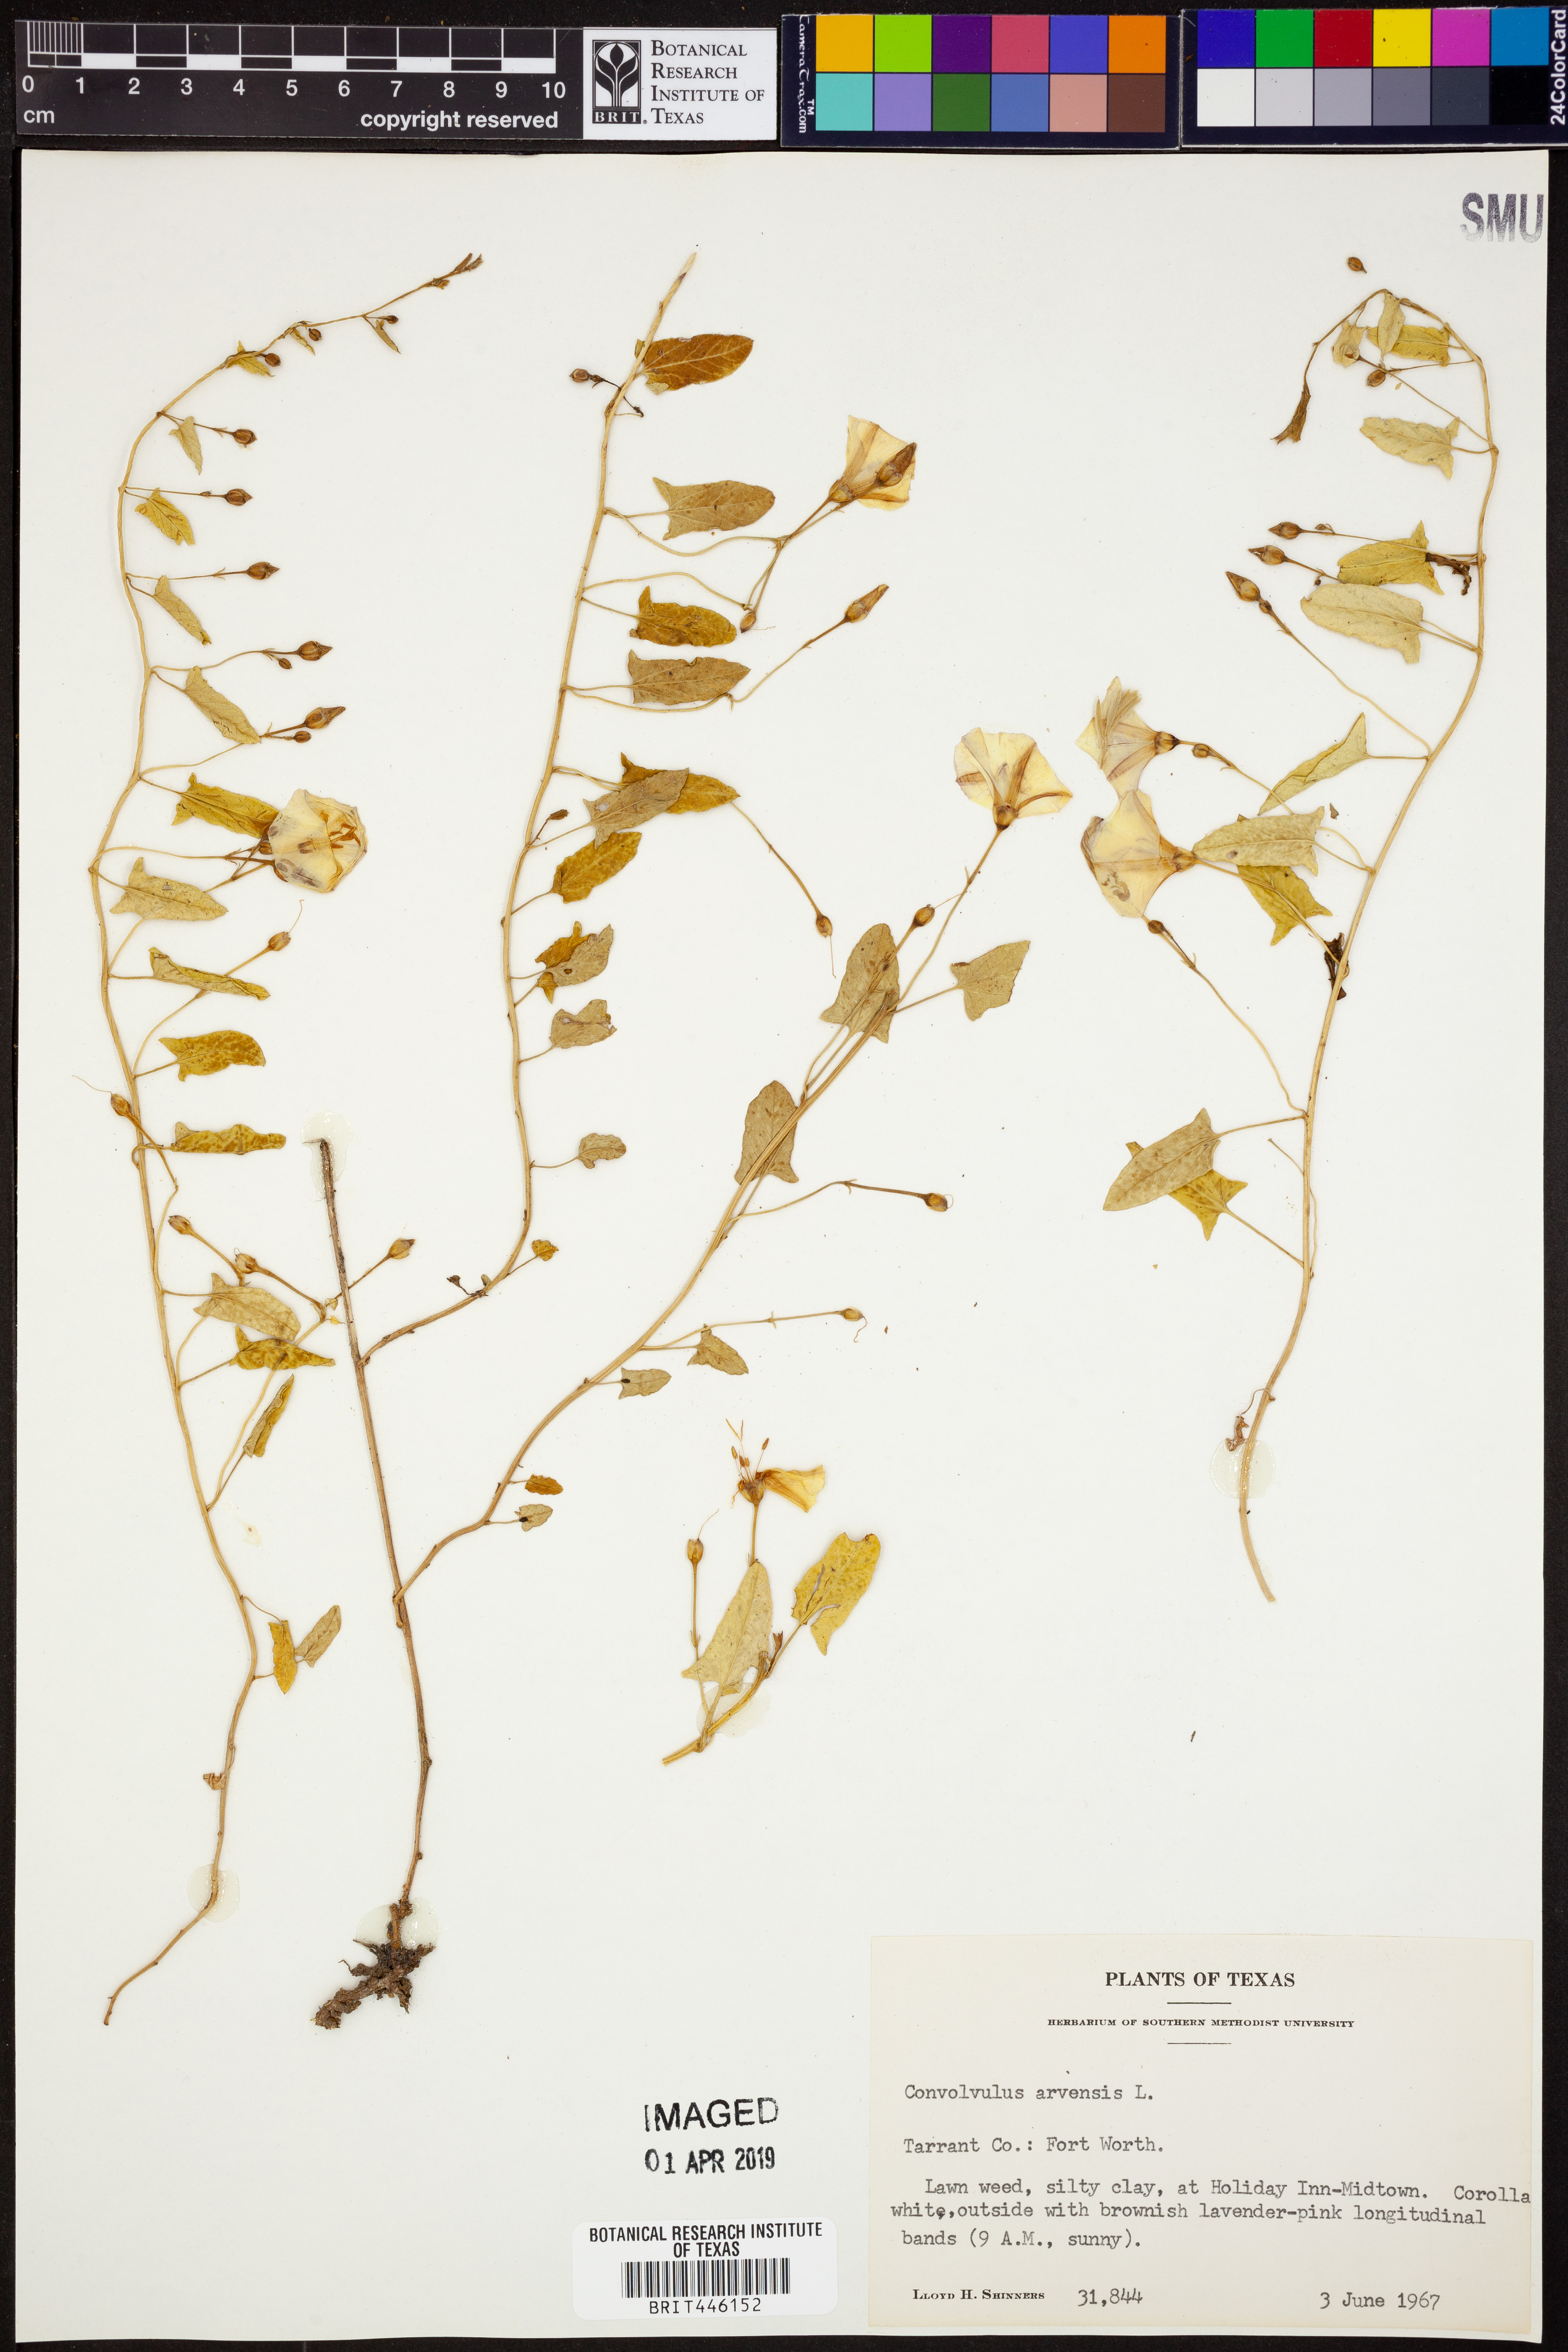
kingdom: Plantae
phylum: Tracheophyta
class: Magnoliopsida
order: Solanales
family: Convolvulaceae
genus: Convolvulus
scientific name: Convolvulus arvensis
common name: Field bindweed
